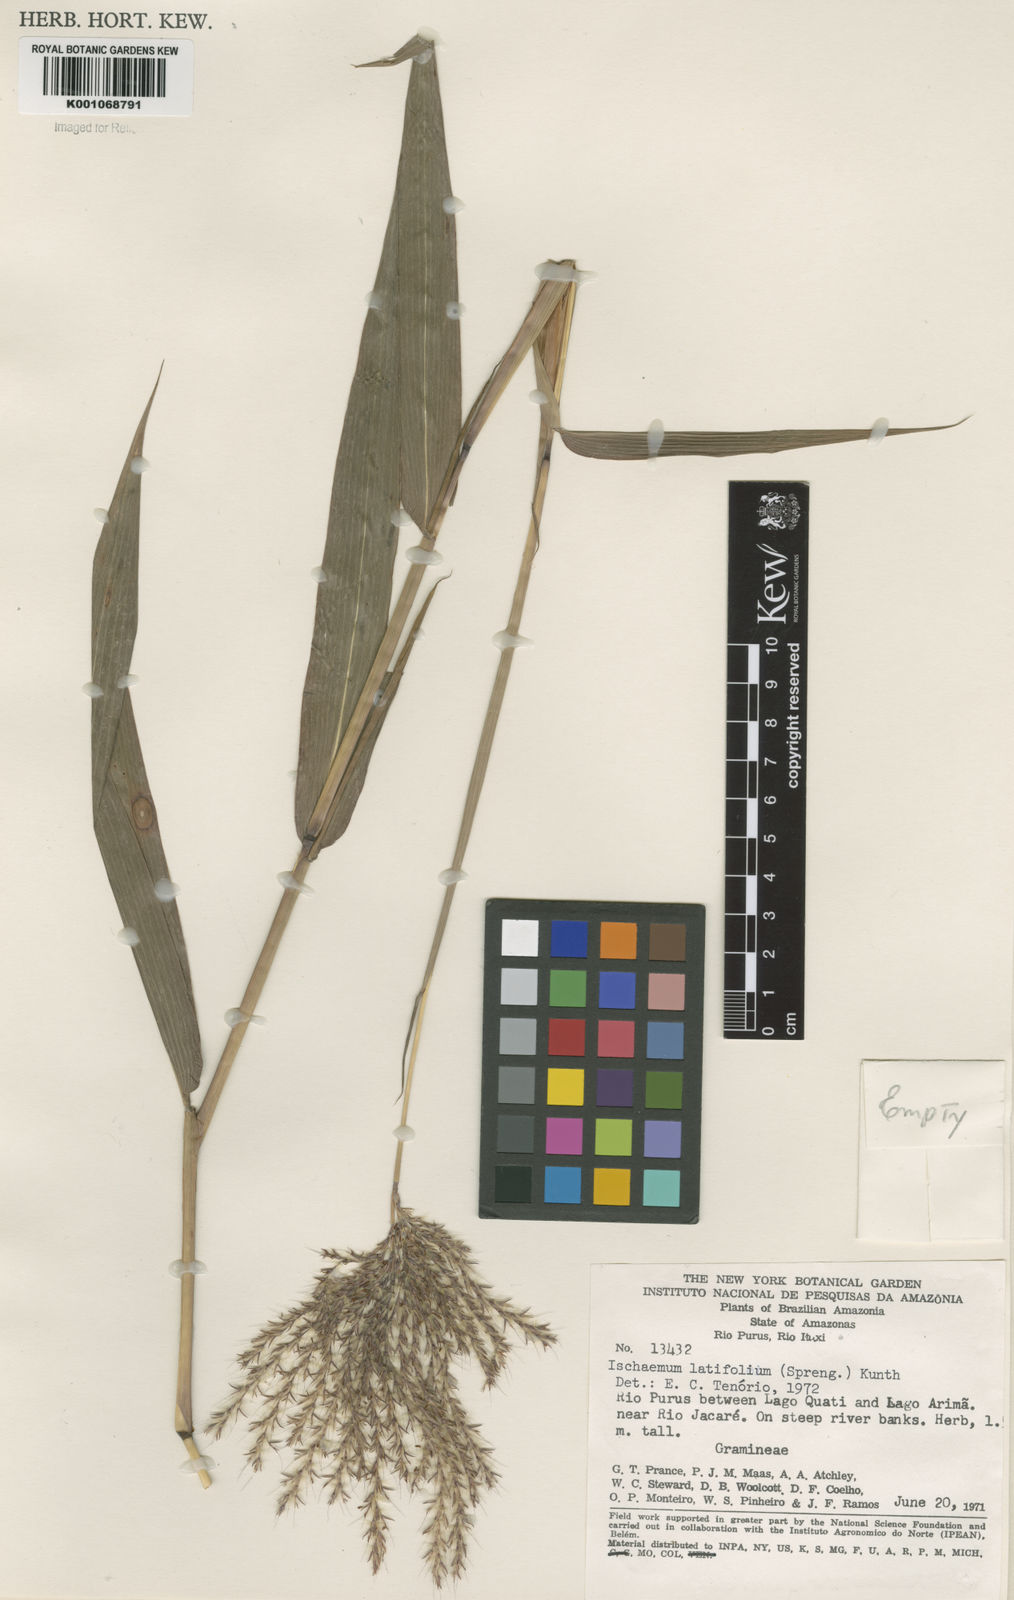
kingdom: Plantae
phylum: Tracheophyta
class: Liliopsida
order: Poales
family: Poaceae
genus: Ischaemum
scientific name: Ischaemum latifolium
